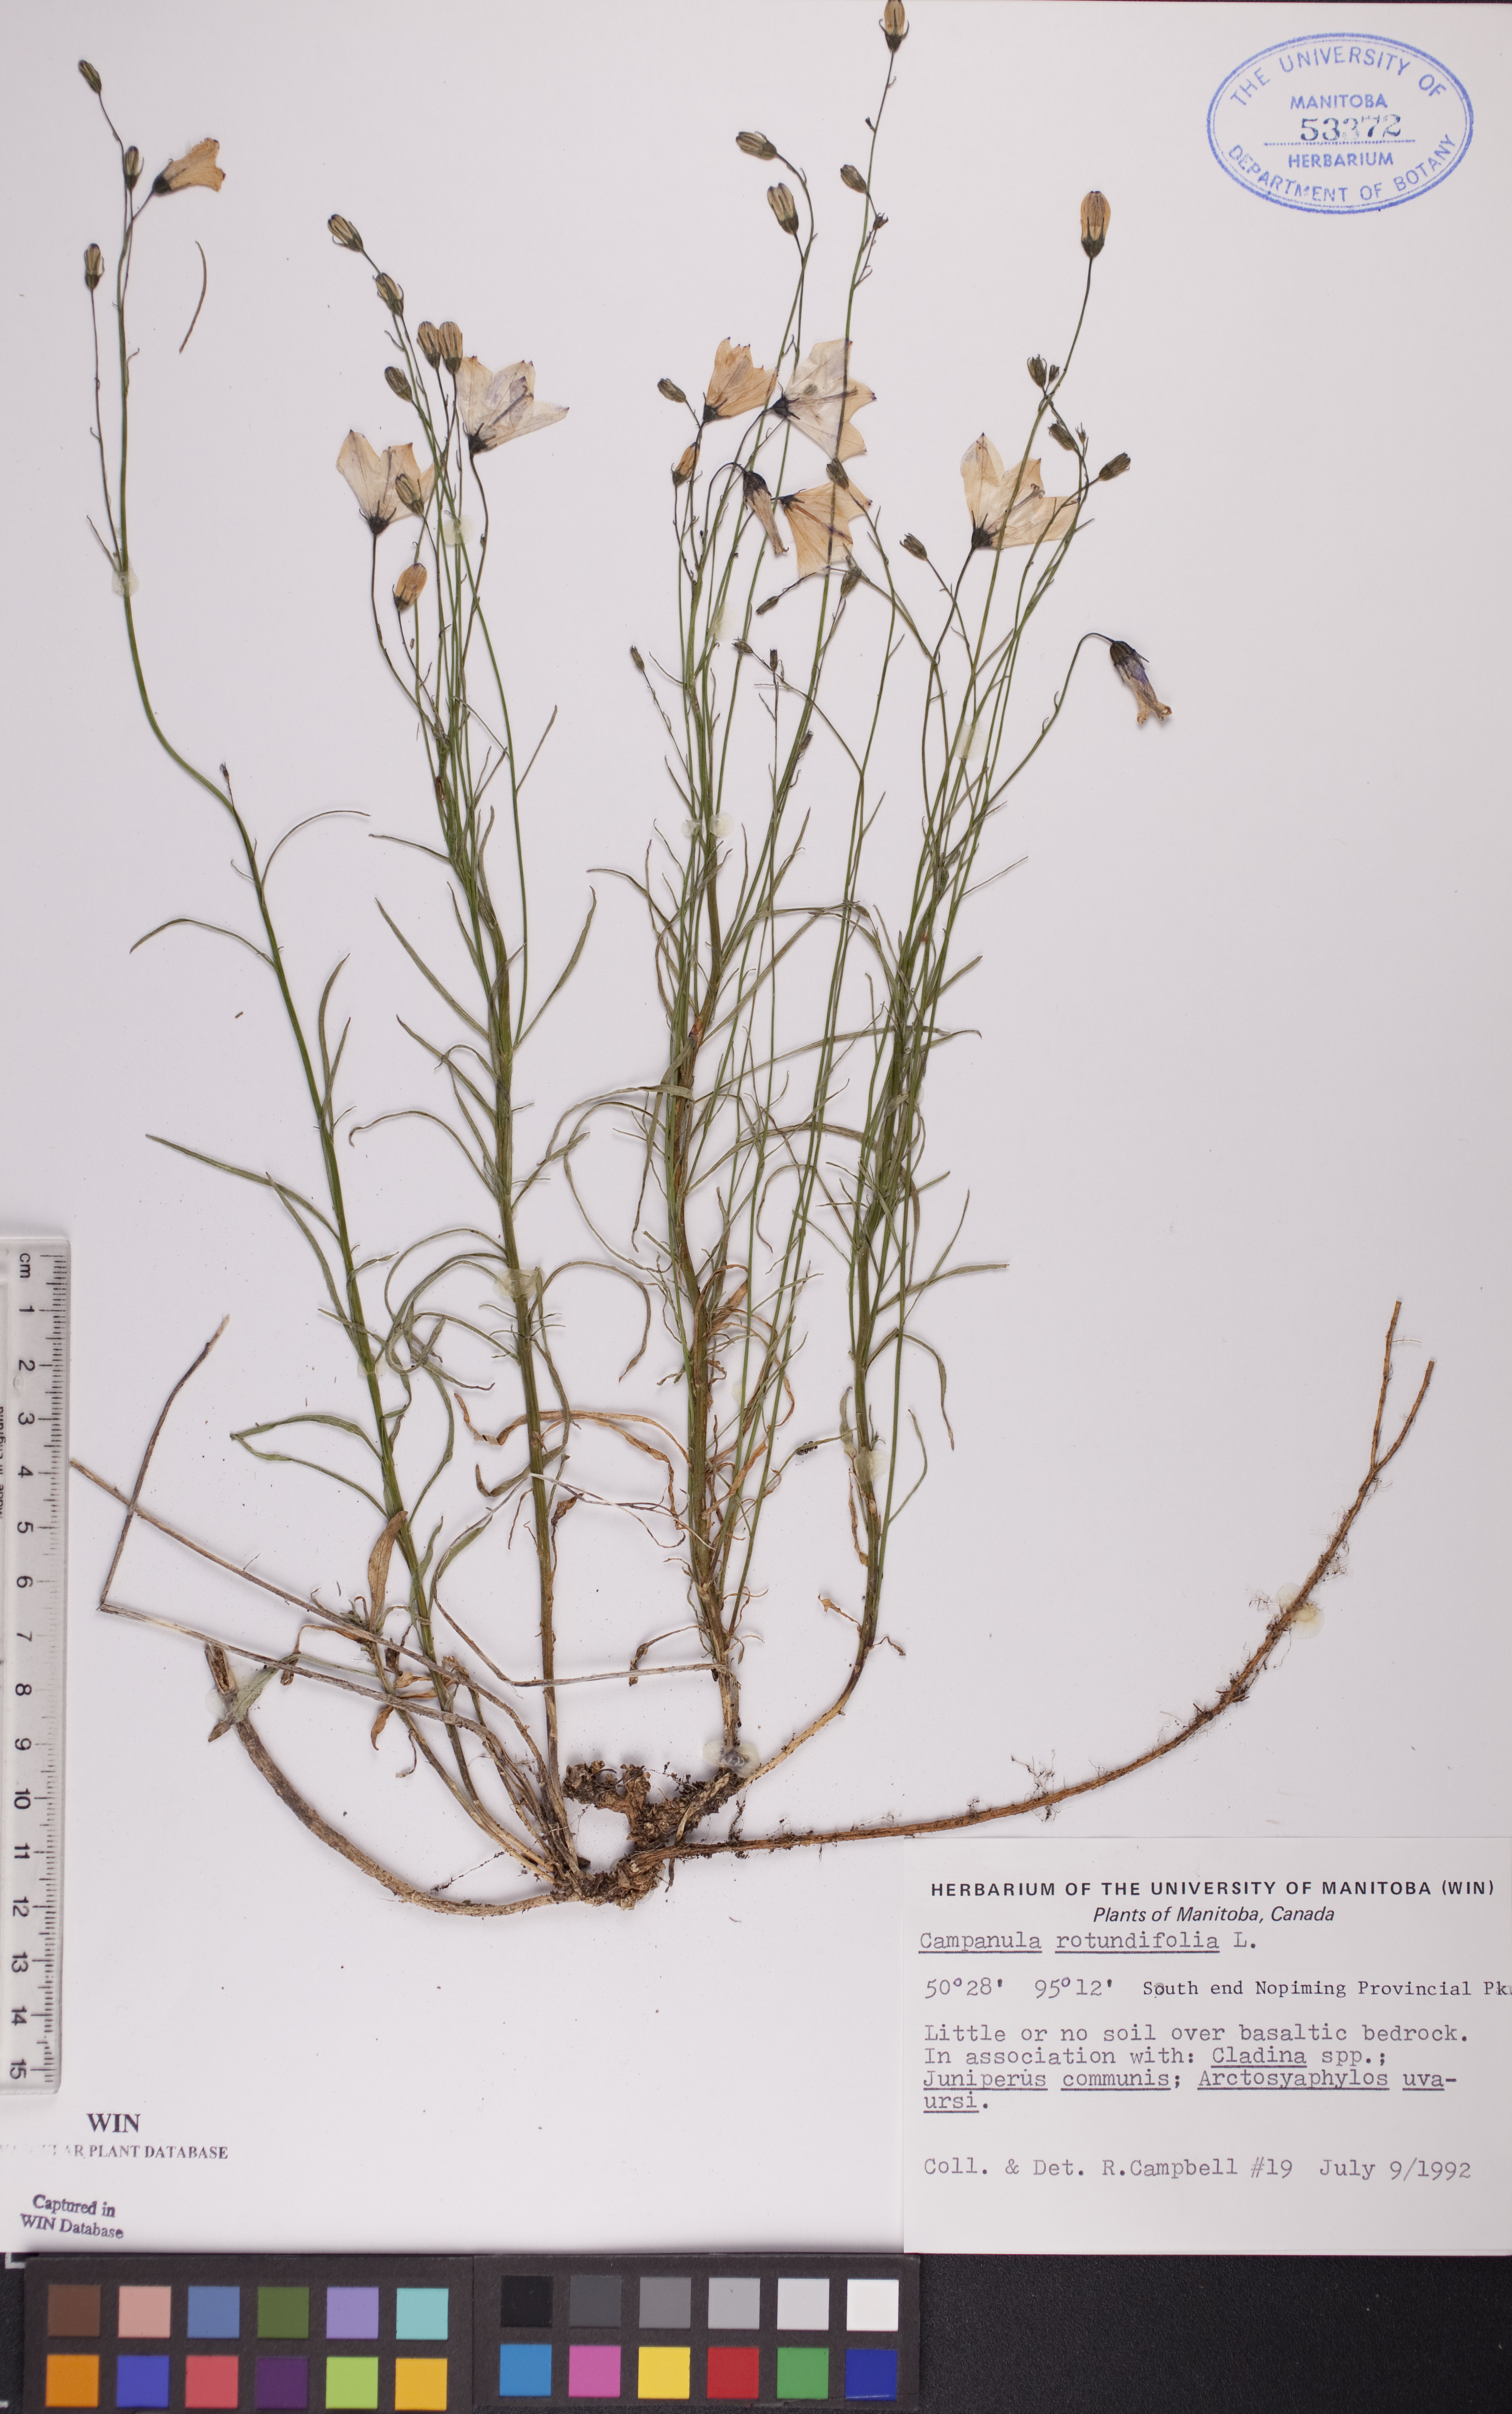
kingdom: Plantae
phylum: Tracheophyta
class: Magnoliopsida
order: Asterales
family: Campanulaceae
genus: Campanula
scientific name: Campanula rotundifolia
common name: Harebell
